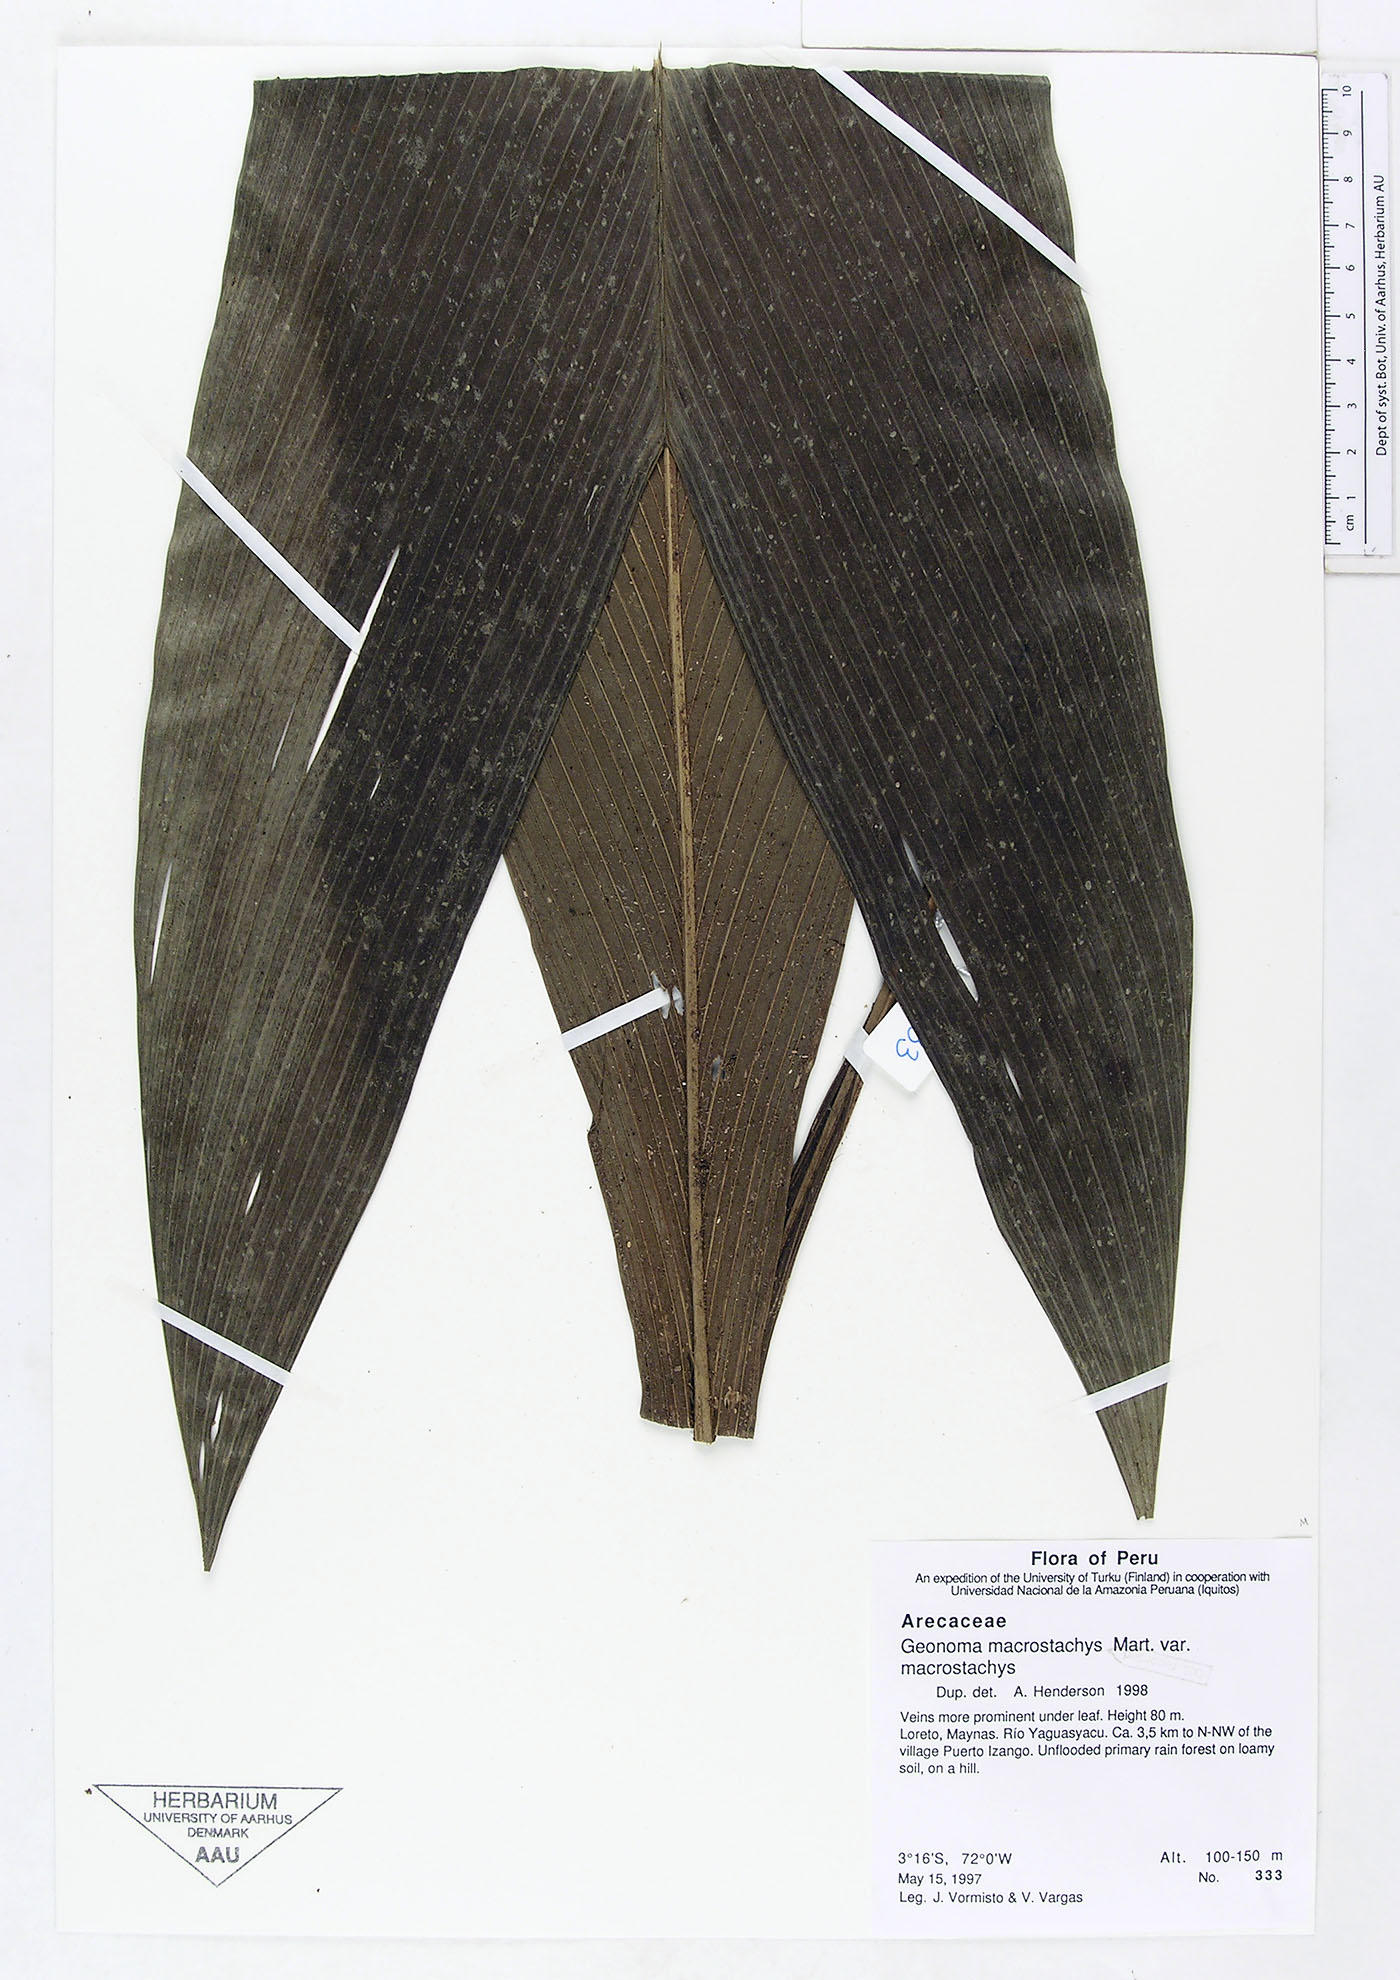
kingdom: Plantae
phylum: Tracheophyta
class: Liliopsida
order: Arecales
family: Arecaceae
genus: Geonoma
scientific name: Geonoma macrostachys
